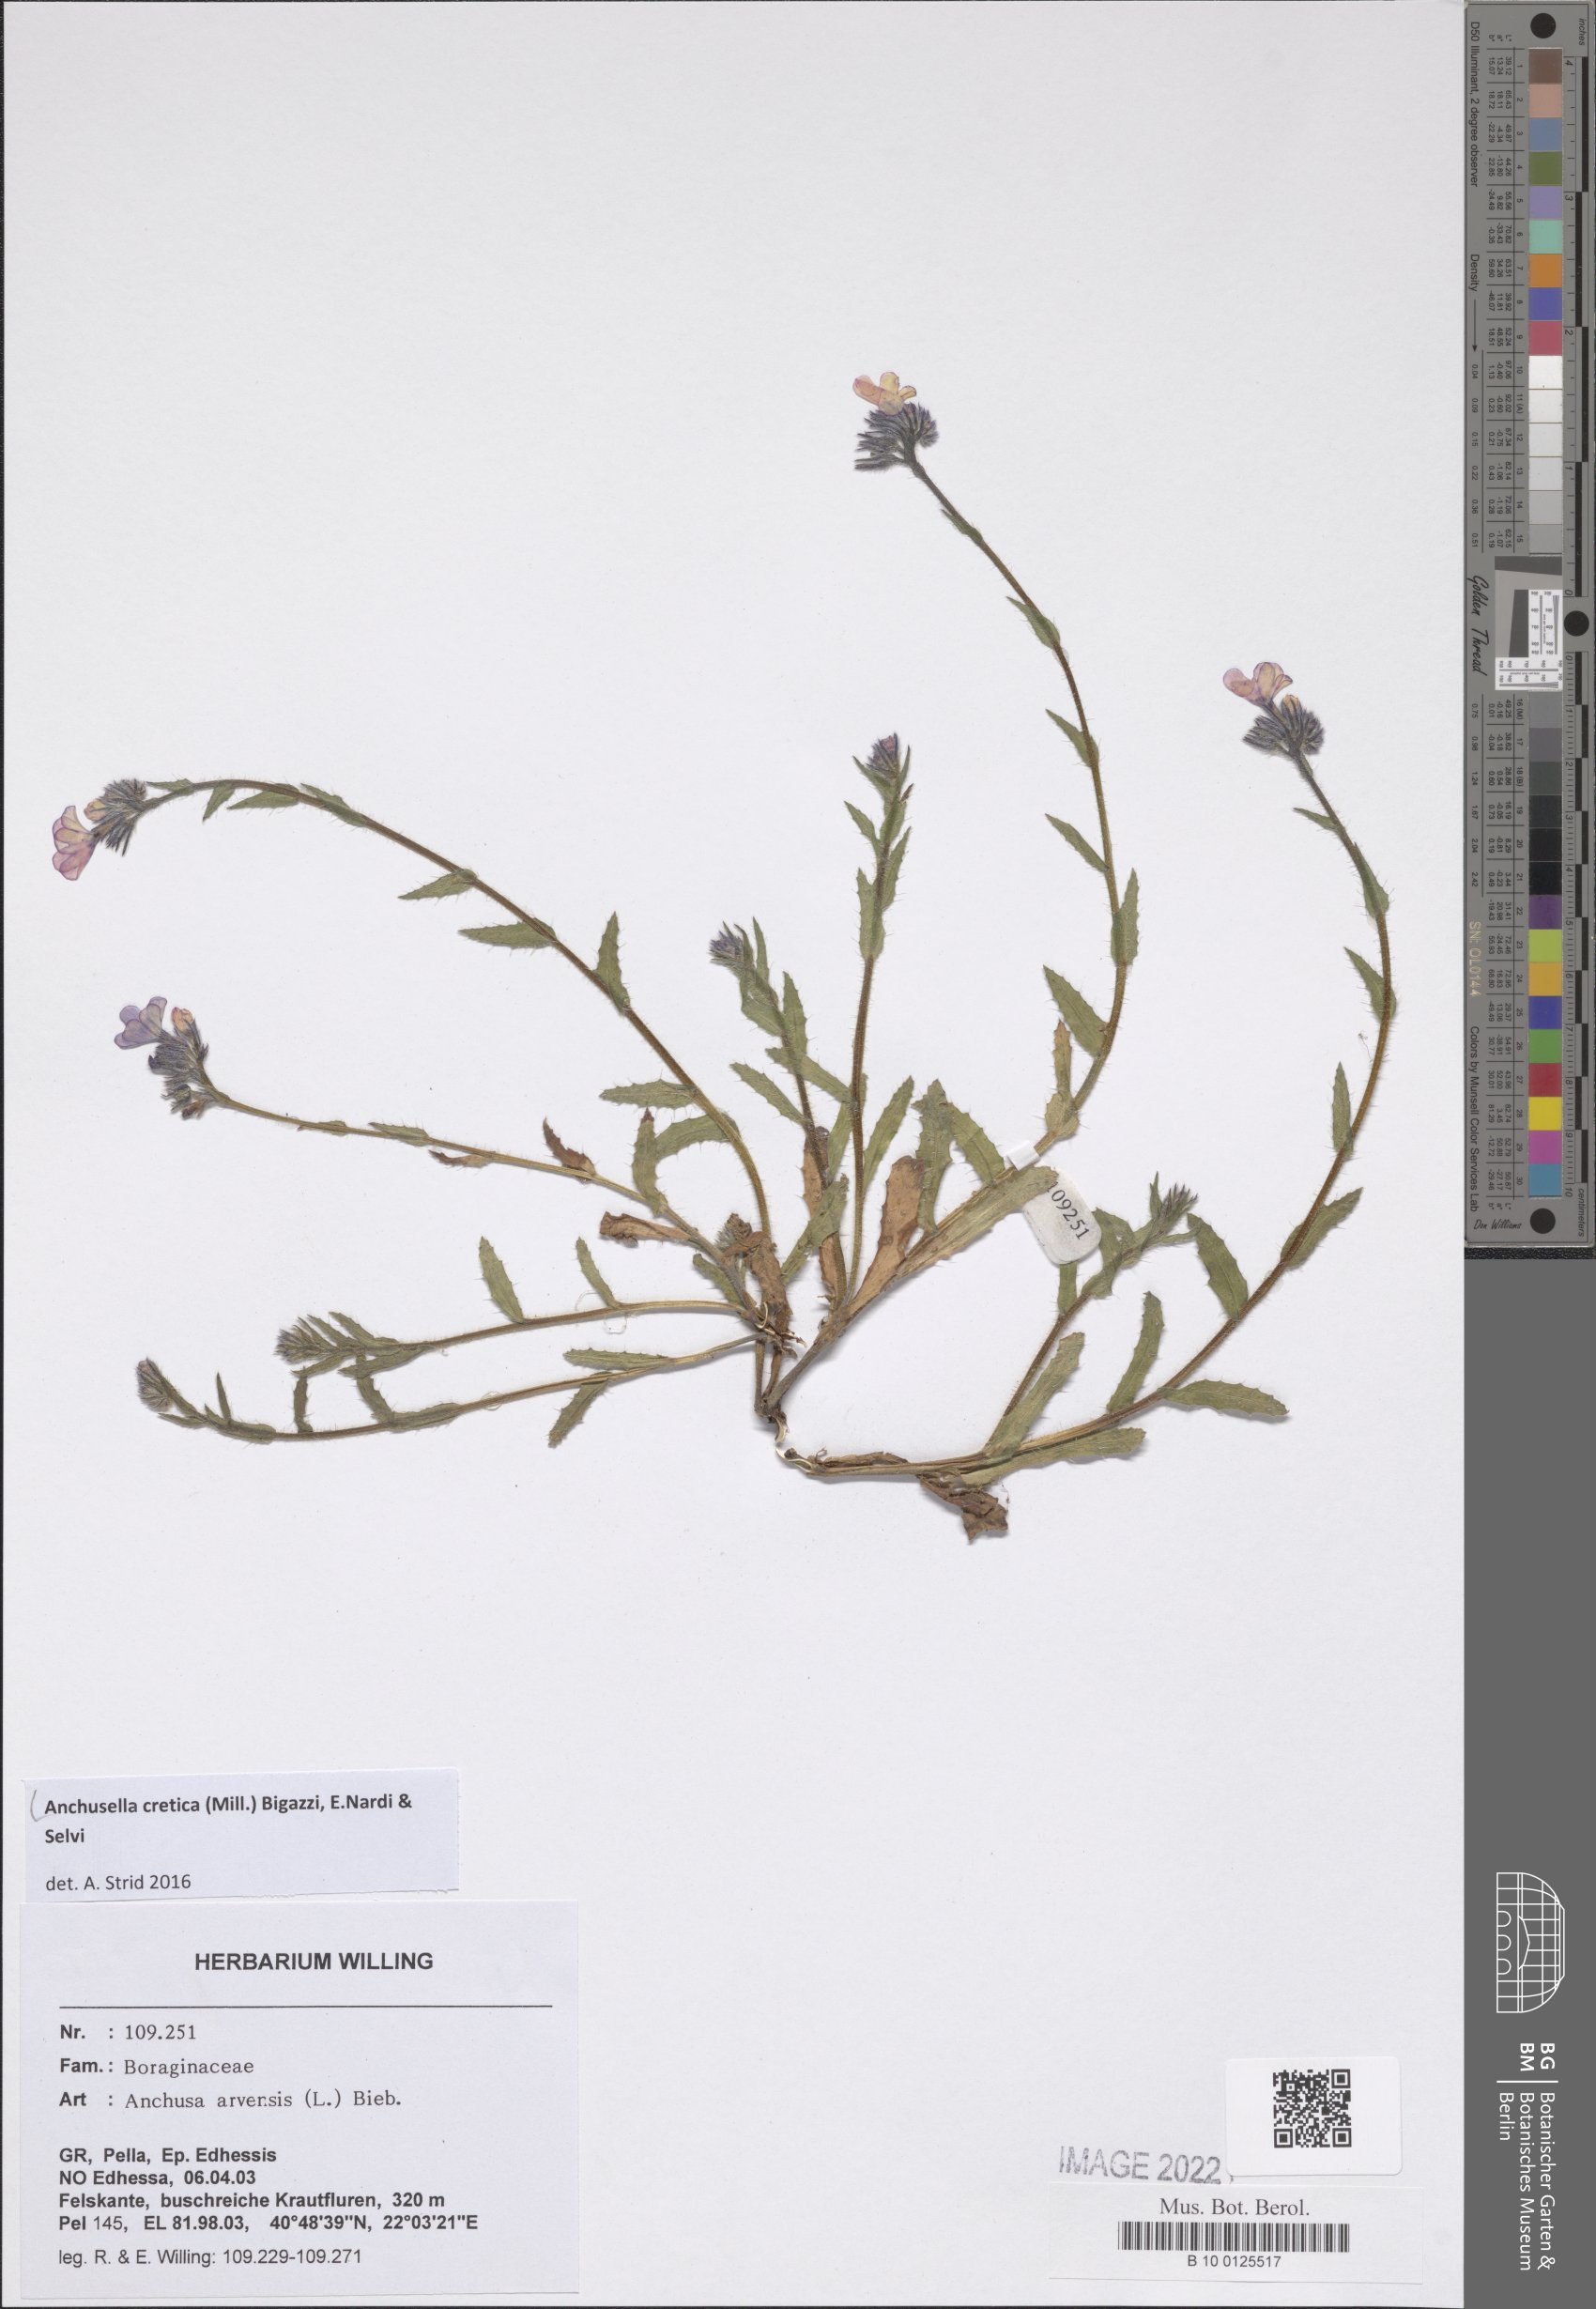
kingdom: Plantae
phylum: Tracheophyta
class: Magnoliopsida
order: Boraginales
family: Boraginaceae
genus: Anchusella
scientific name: Anchusella cretica
